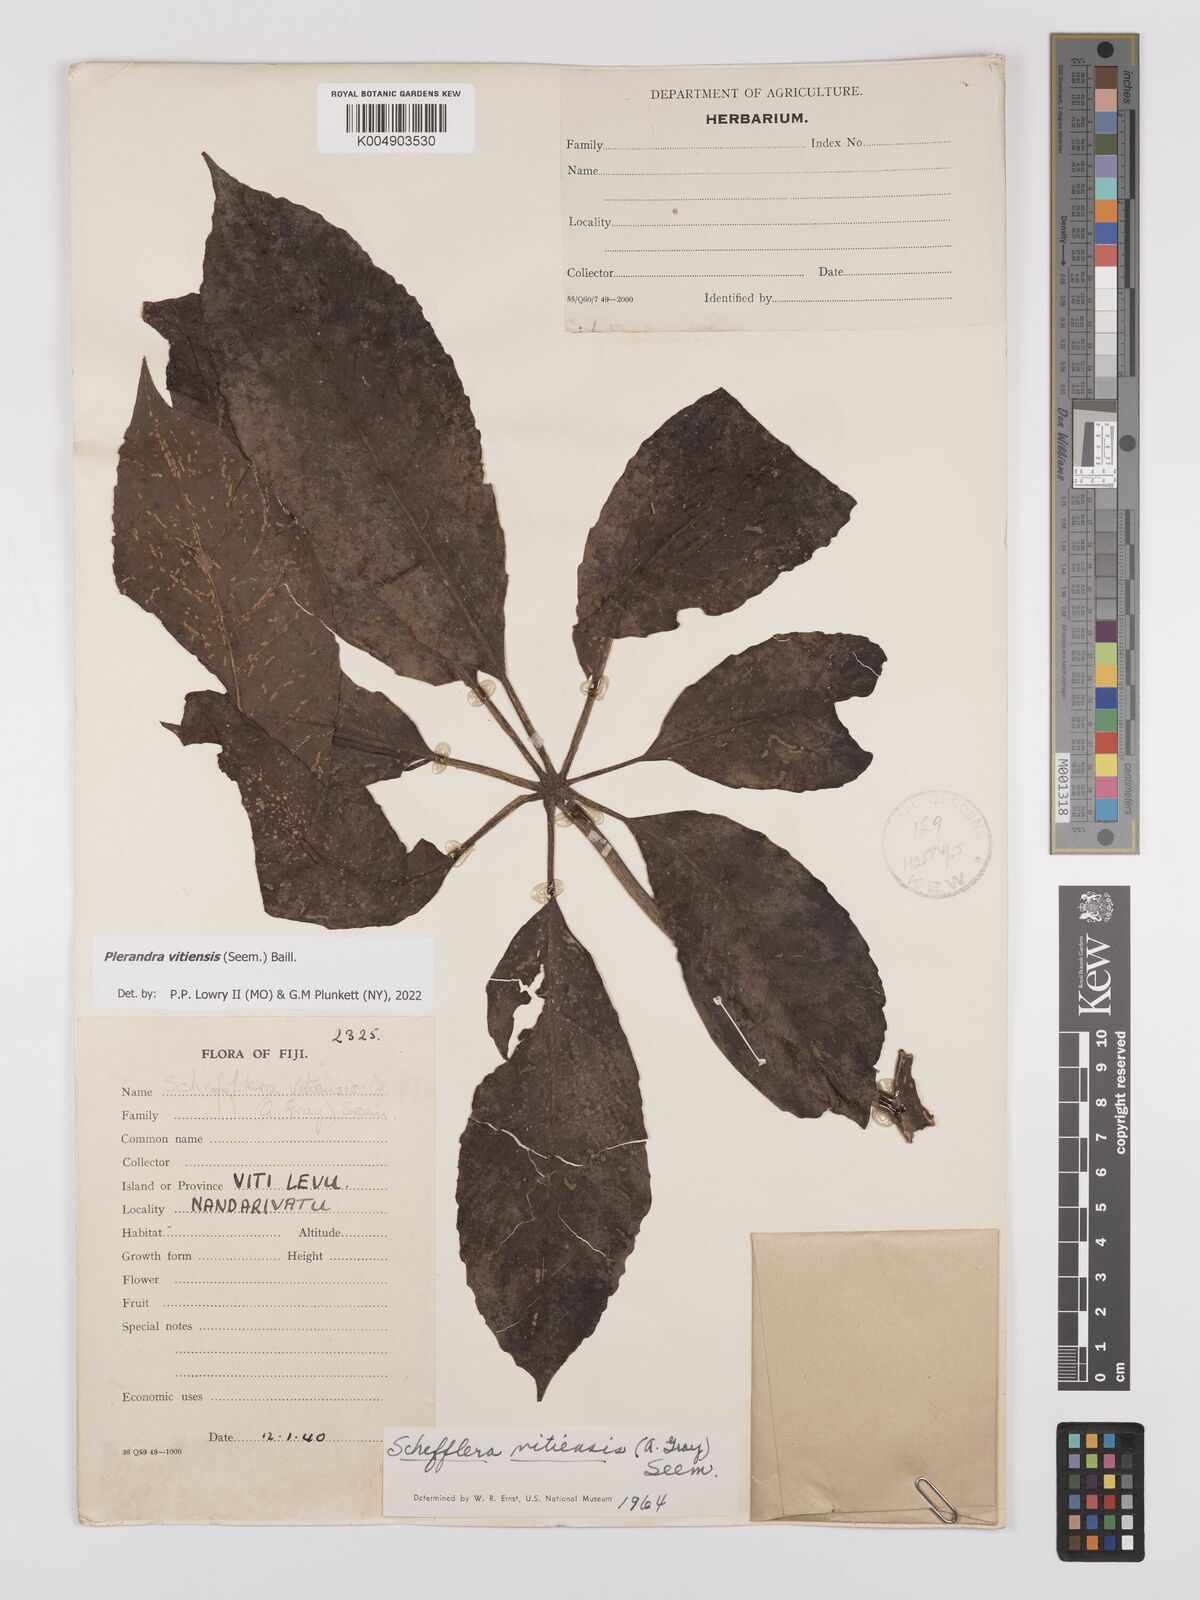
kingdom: Plantae
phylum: Tracheophyta
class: Magnoliopsida
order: Apiales
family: Araliaceae
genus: Schefflera
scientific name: Schefflera vitiensis
